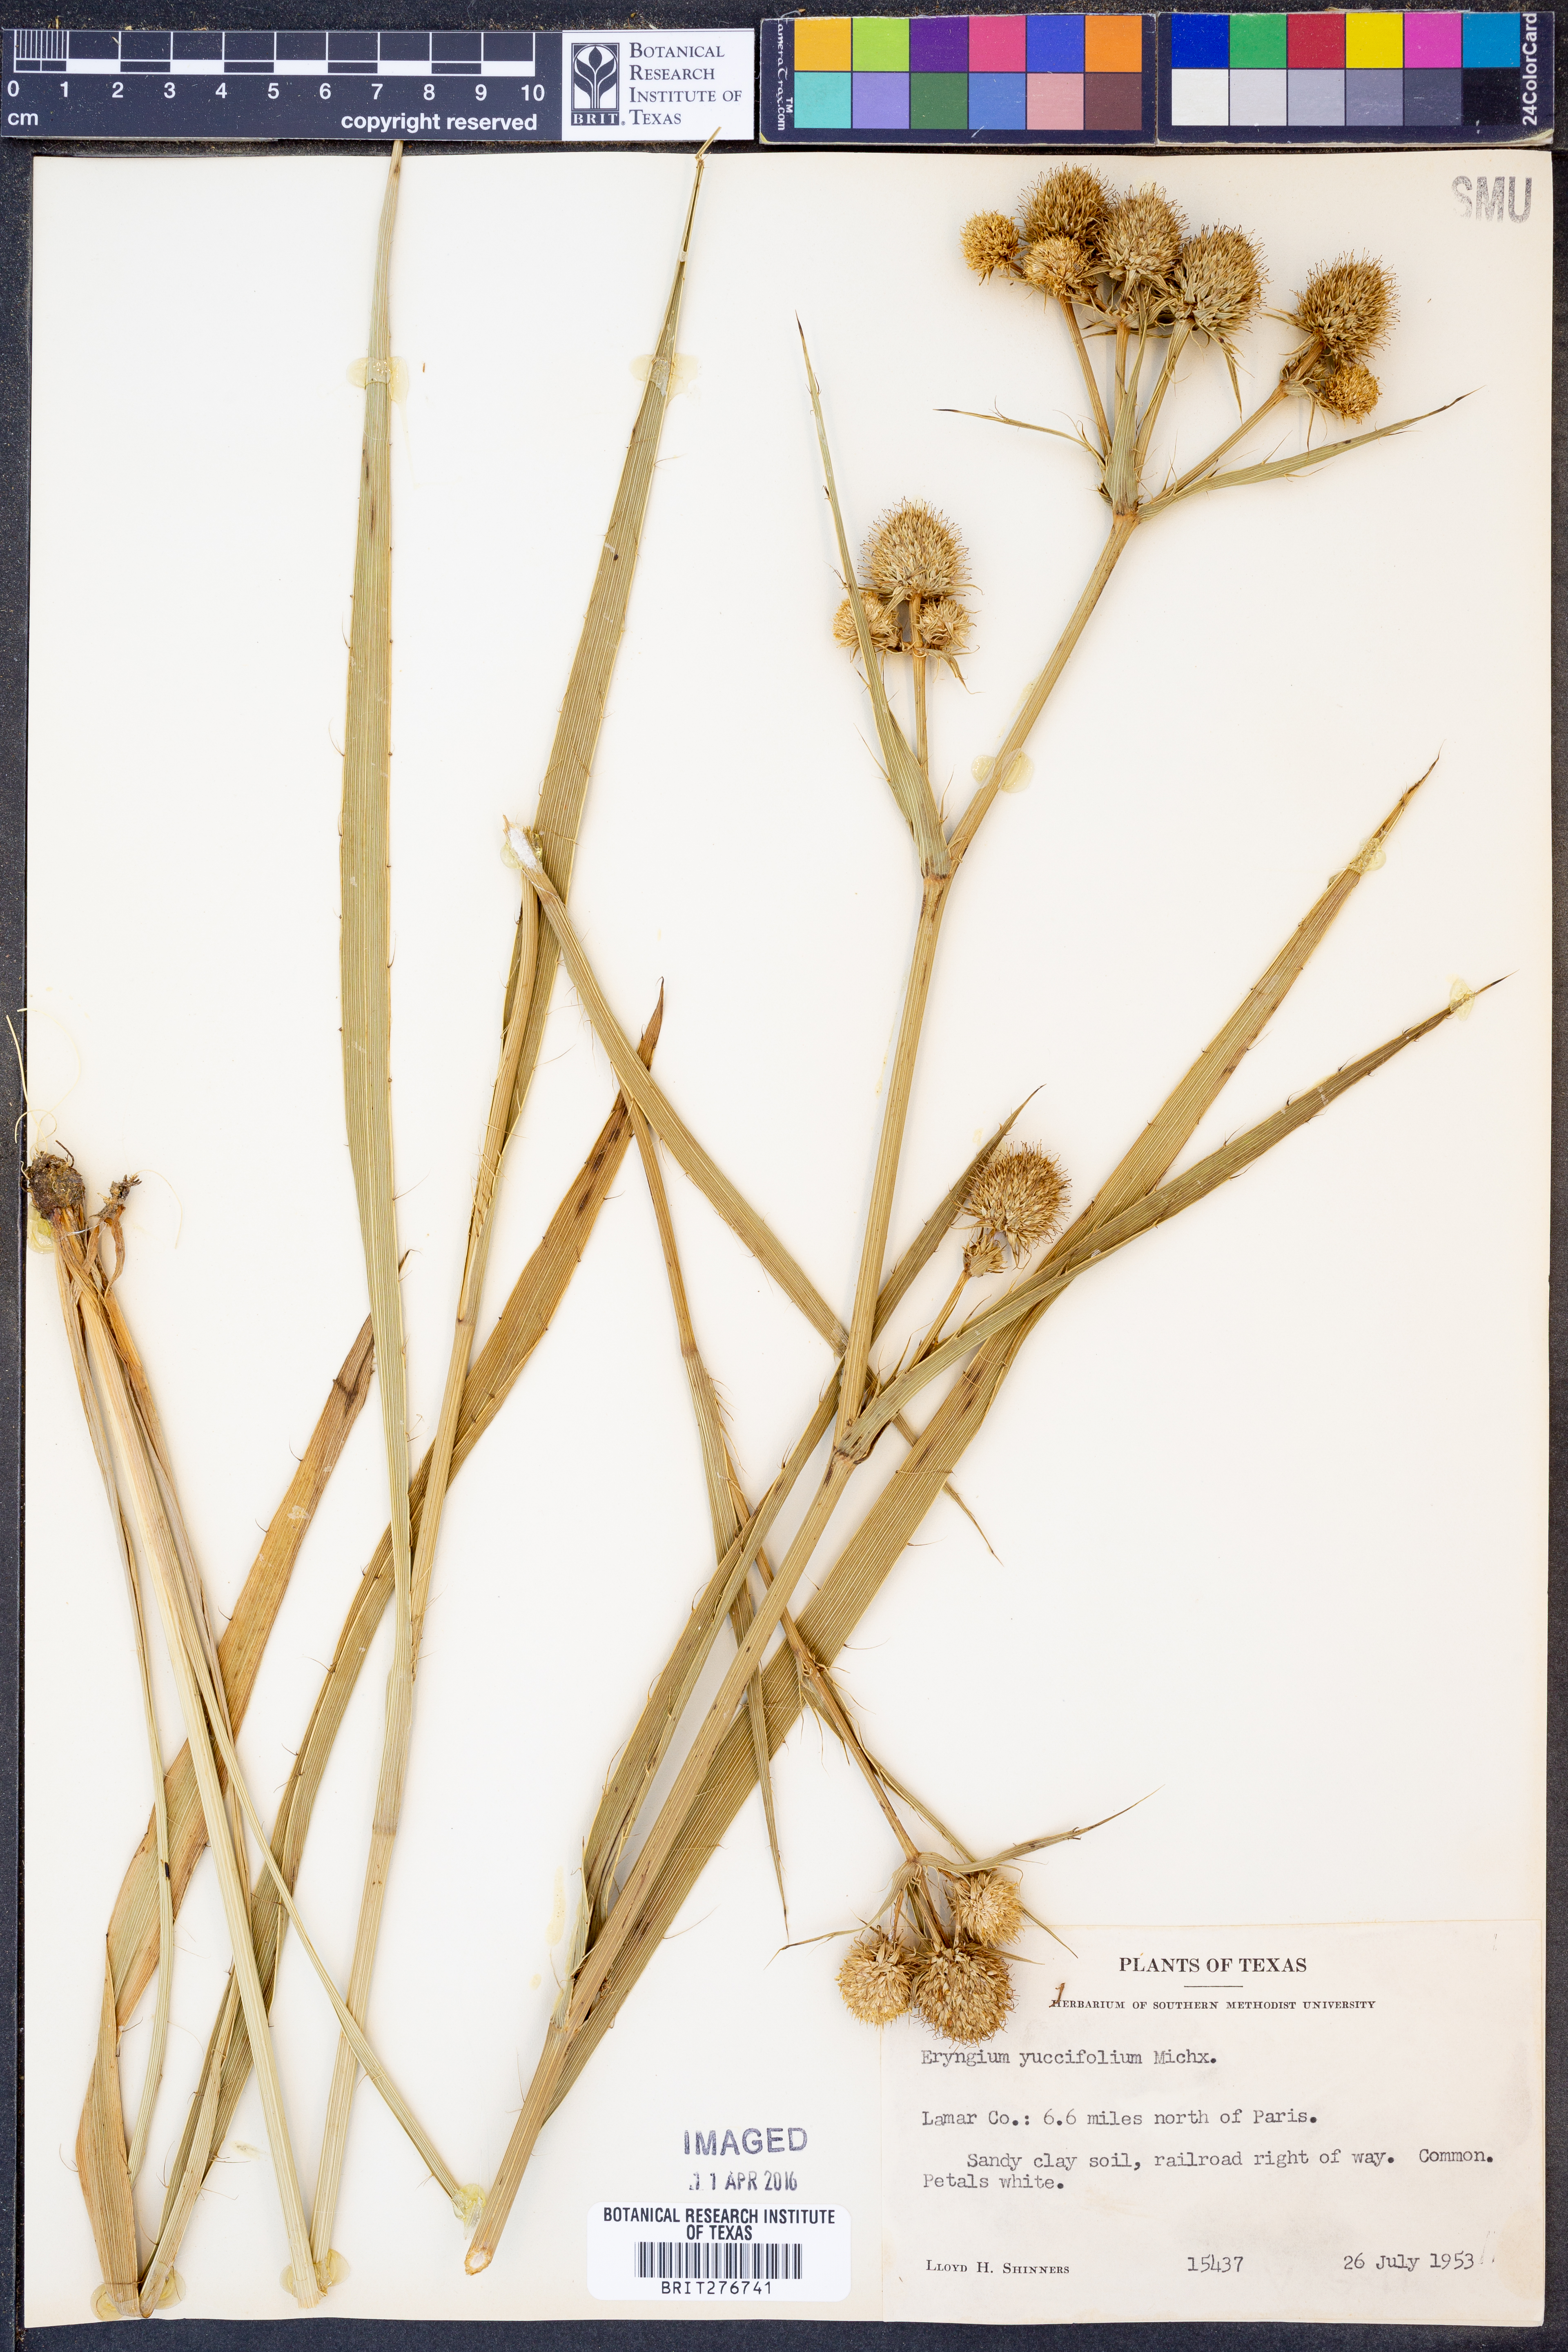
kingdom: Plantae
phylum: Tracheophyta
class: Magnoliopsida
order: Apiales
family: Apiaceae
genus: Eryngium
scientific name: Eryngium yuccifolium
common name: Button eryngo
